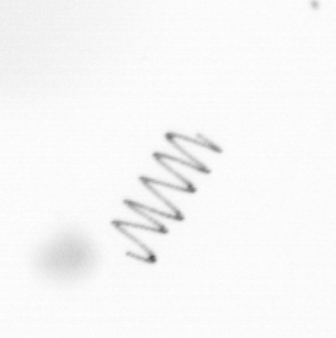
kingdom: Chromista
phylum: Ochrophyta
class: Bacillariophyceae
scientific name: Bacillariophyceae
